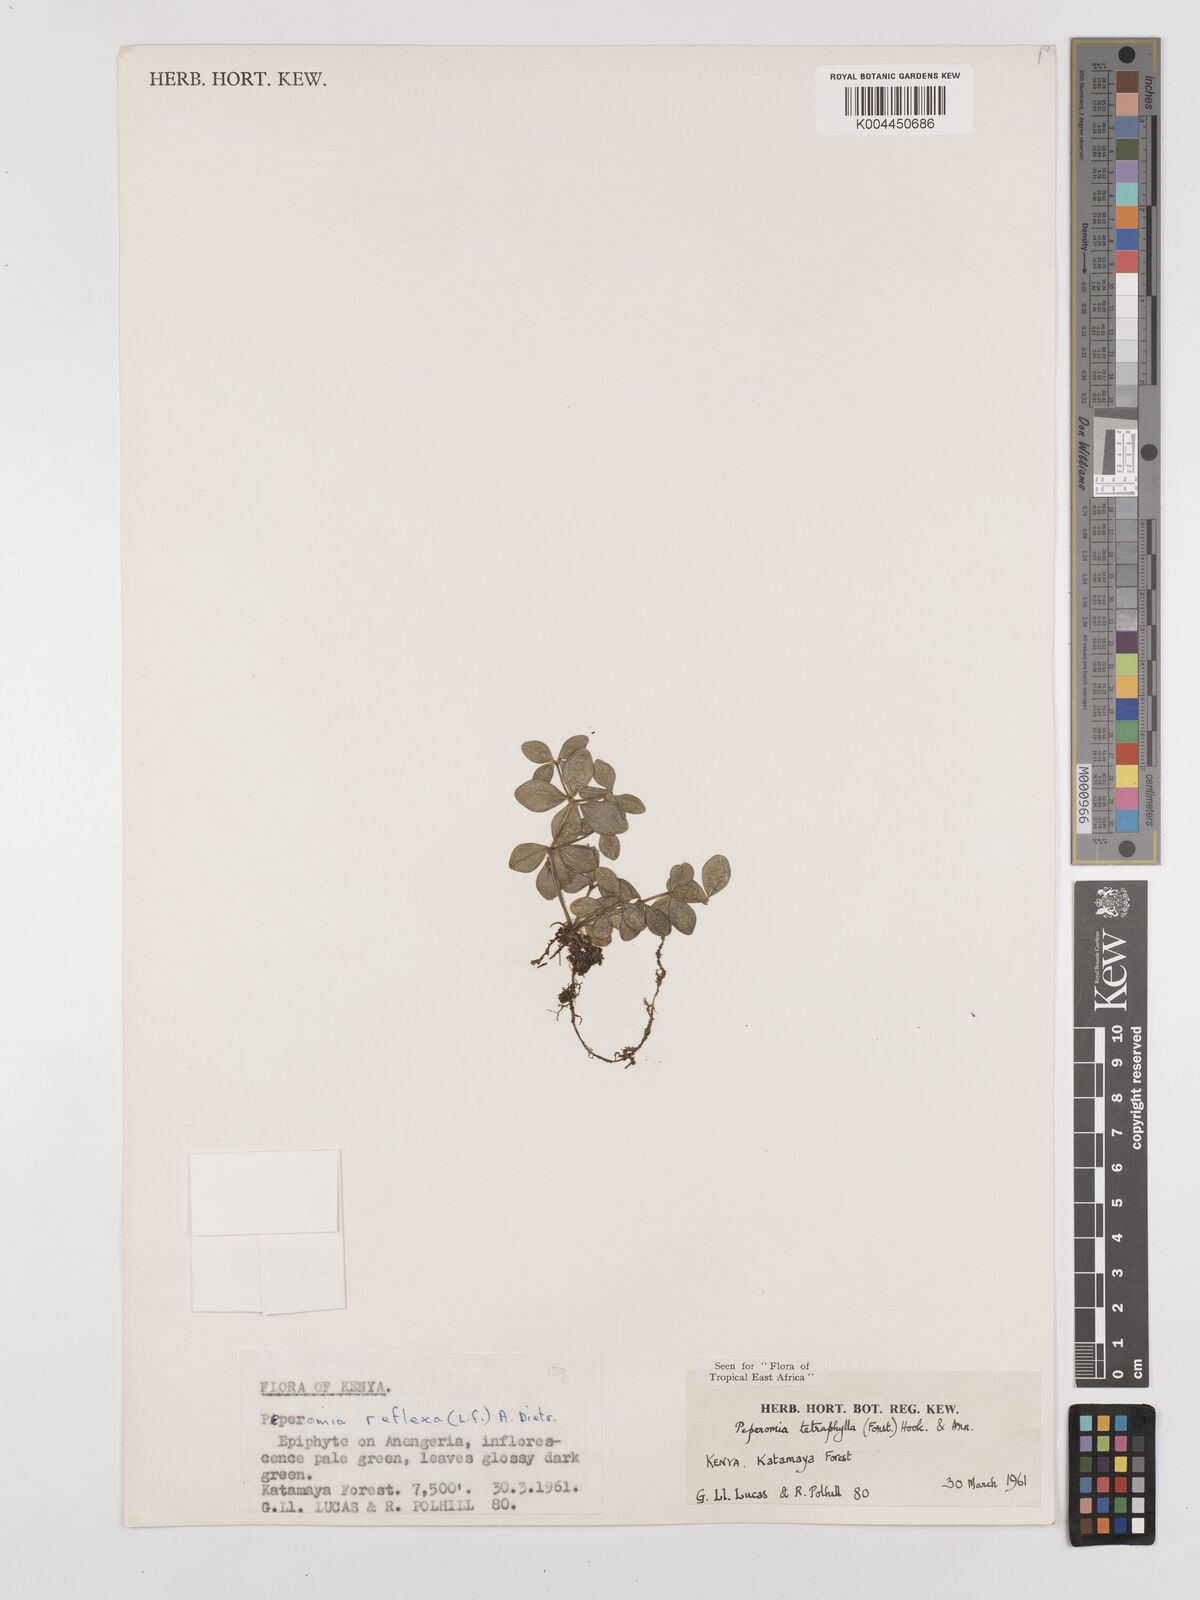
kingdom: Plantae
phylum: Tracheophyta
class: Magnoliopsida
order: Piperales
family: Piperaceae
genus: Peperomia
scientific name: Peperomia tetraphylla
